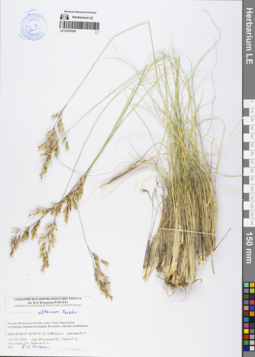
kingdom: Plantae
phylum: Tracheophyta
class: Liliopsida
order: Poales
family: Poaceae
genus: Helictotrichon
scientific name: Helictotrichon desertorum
